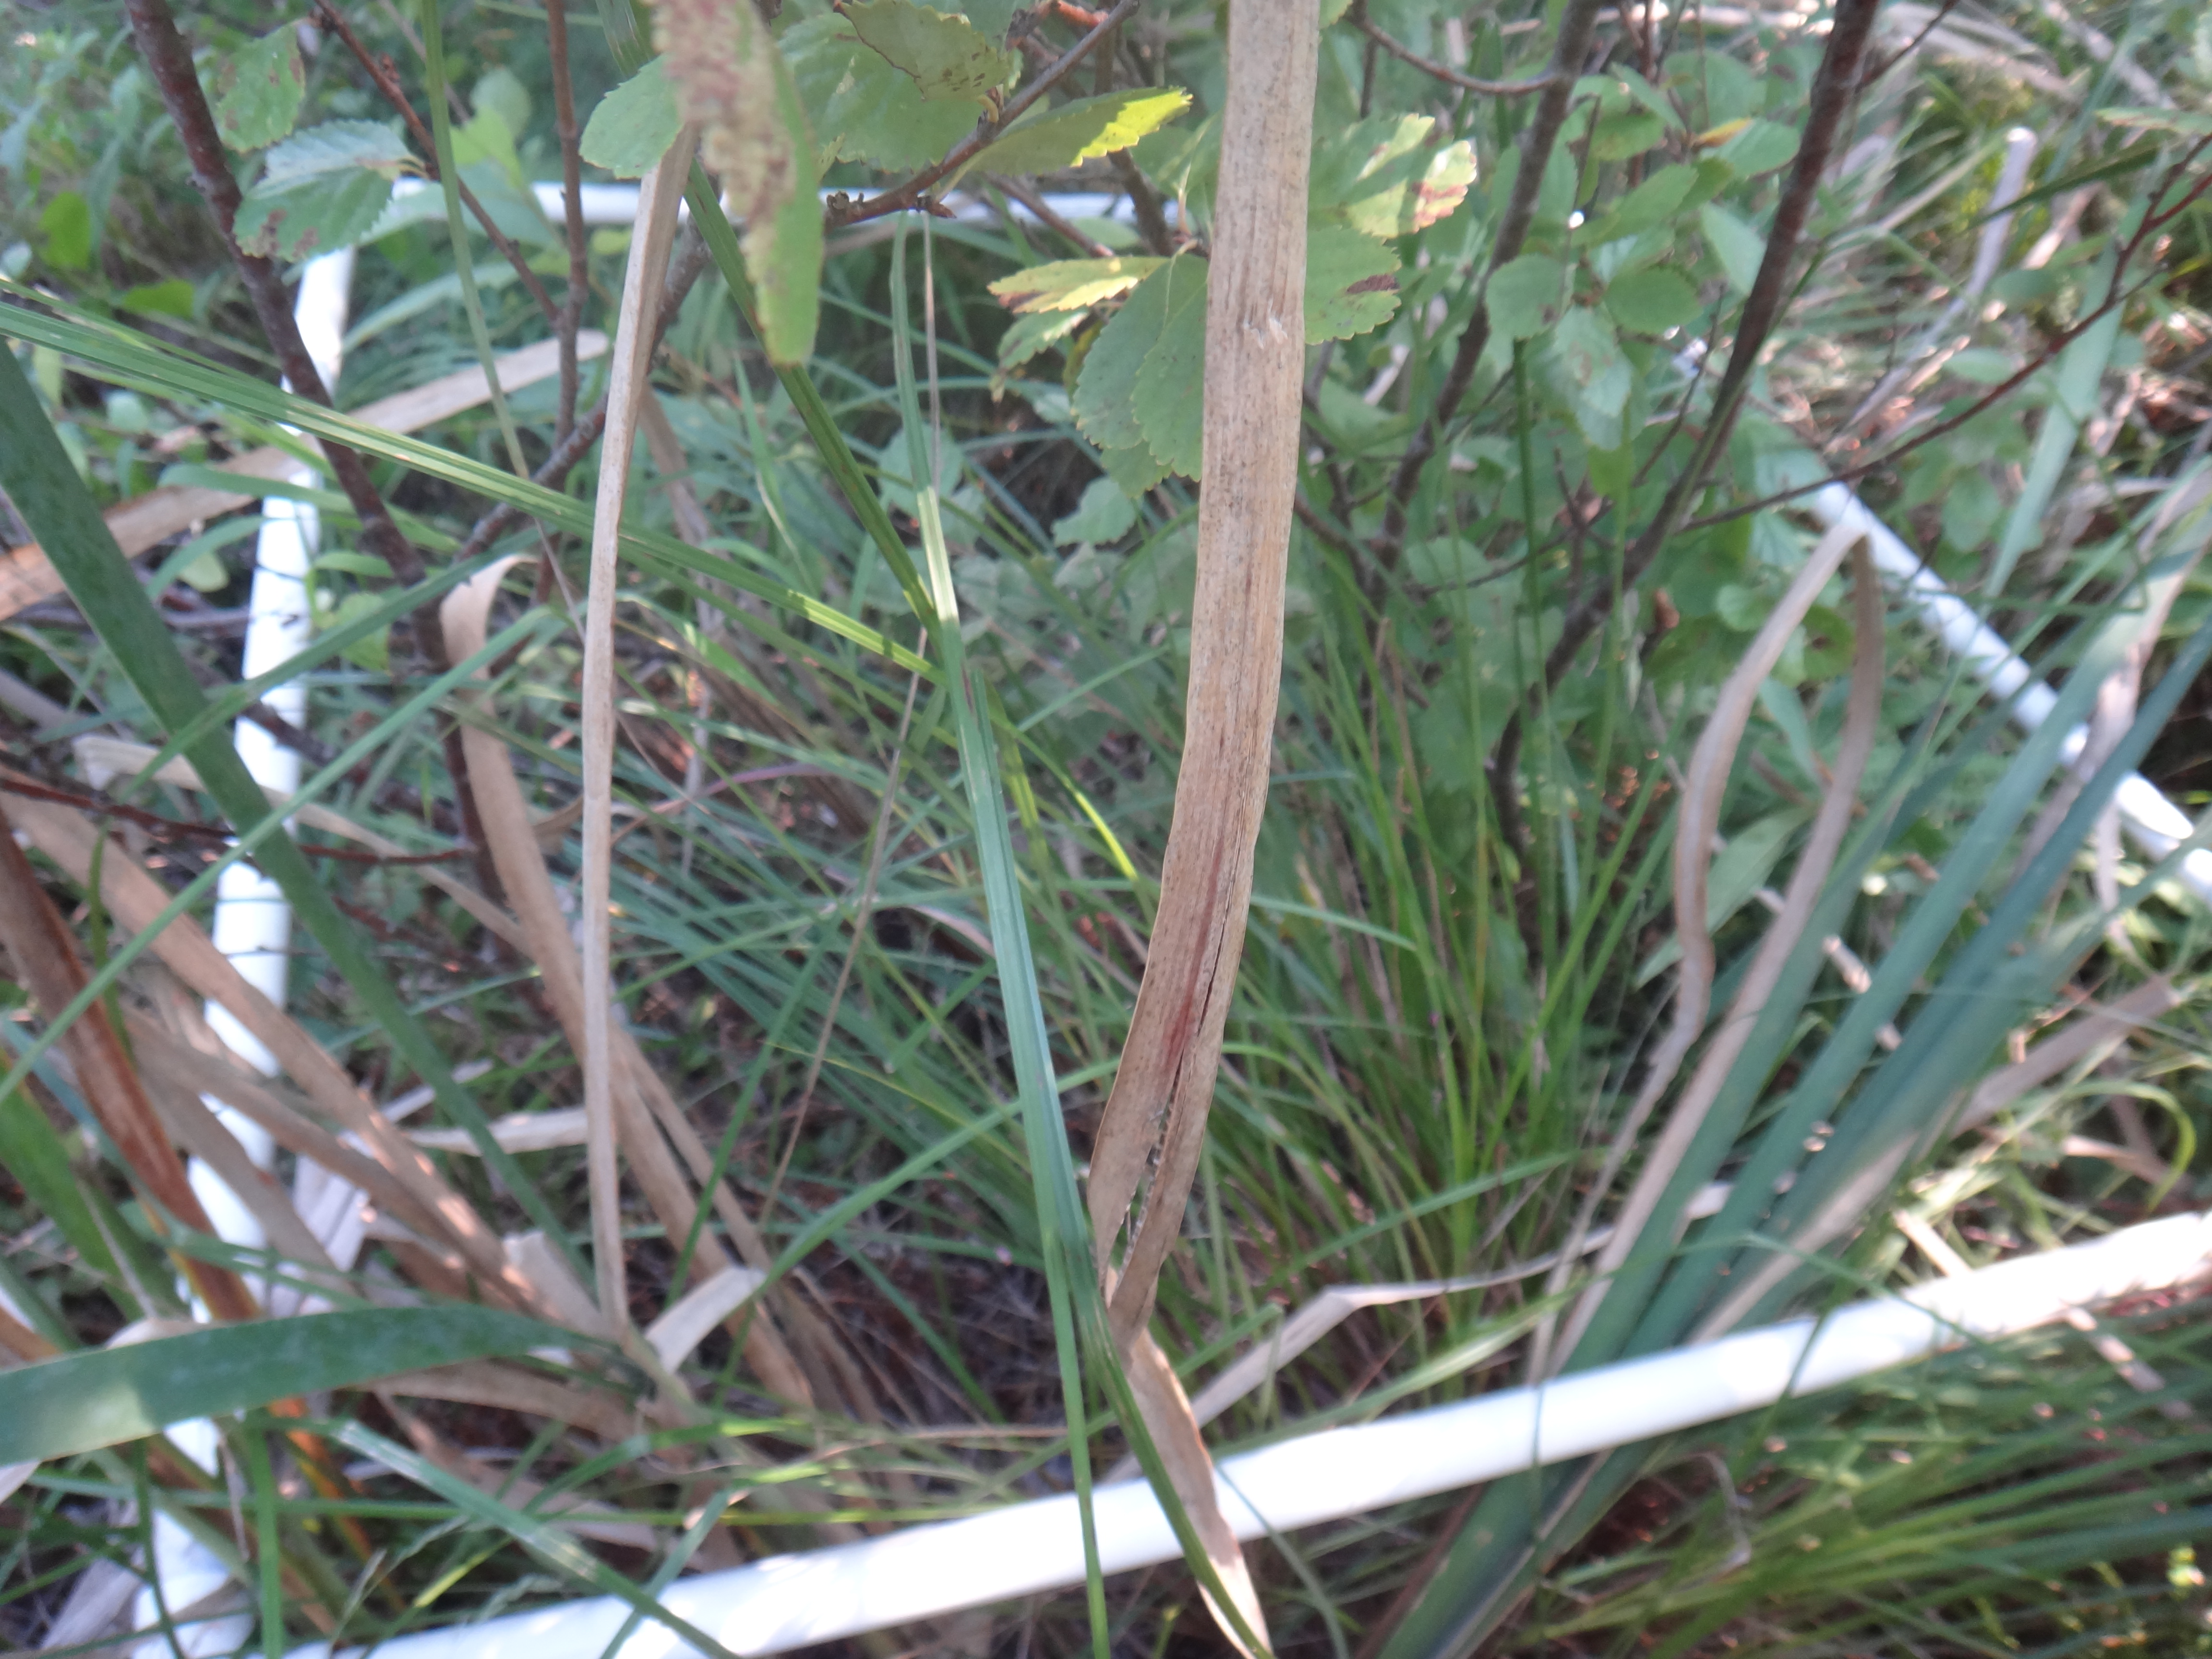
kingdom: Plantae
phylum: Tracheophyta
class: Polypodiopsida
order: Polypodiales
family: Dryopteridaceae
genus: Dryopteris
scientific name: Dryopteris cristata
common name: Crested wood fern
